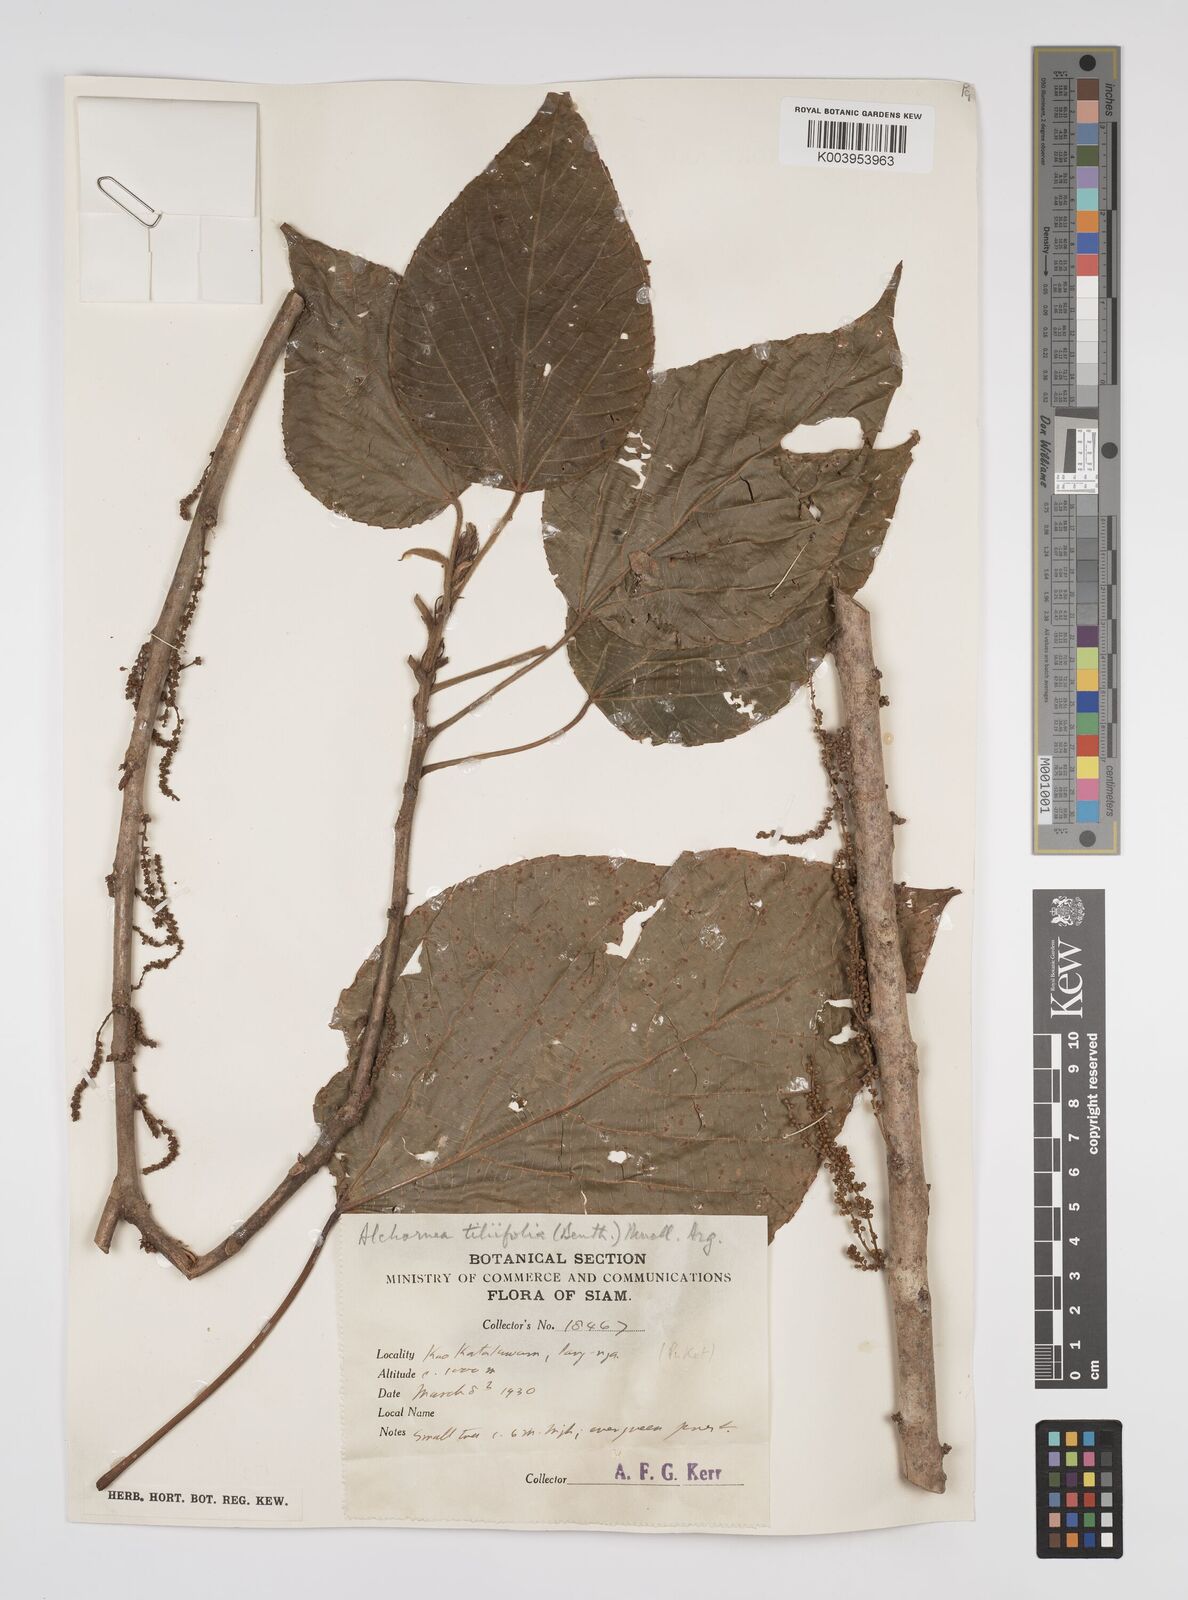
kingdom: Plantae
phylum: Tracheophyta
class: Magnoliopsida
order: Malpighiales
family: Euphorbiaceae
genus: Alchornea
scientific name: Alchornea tiliifolia
